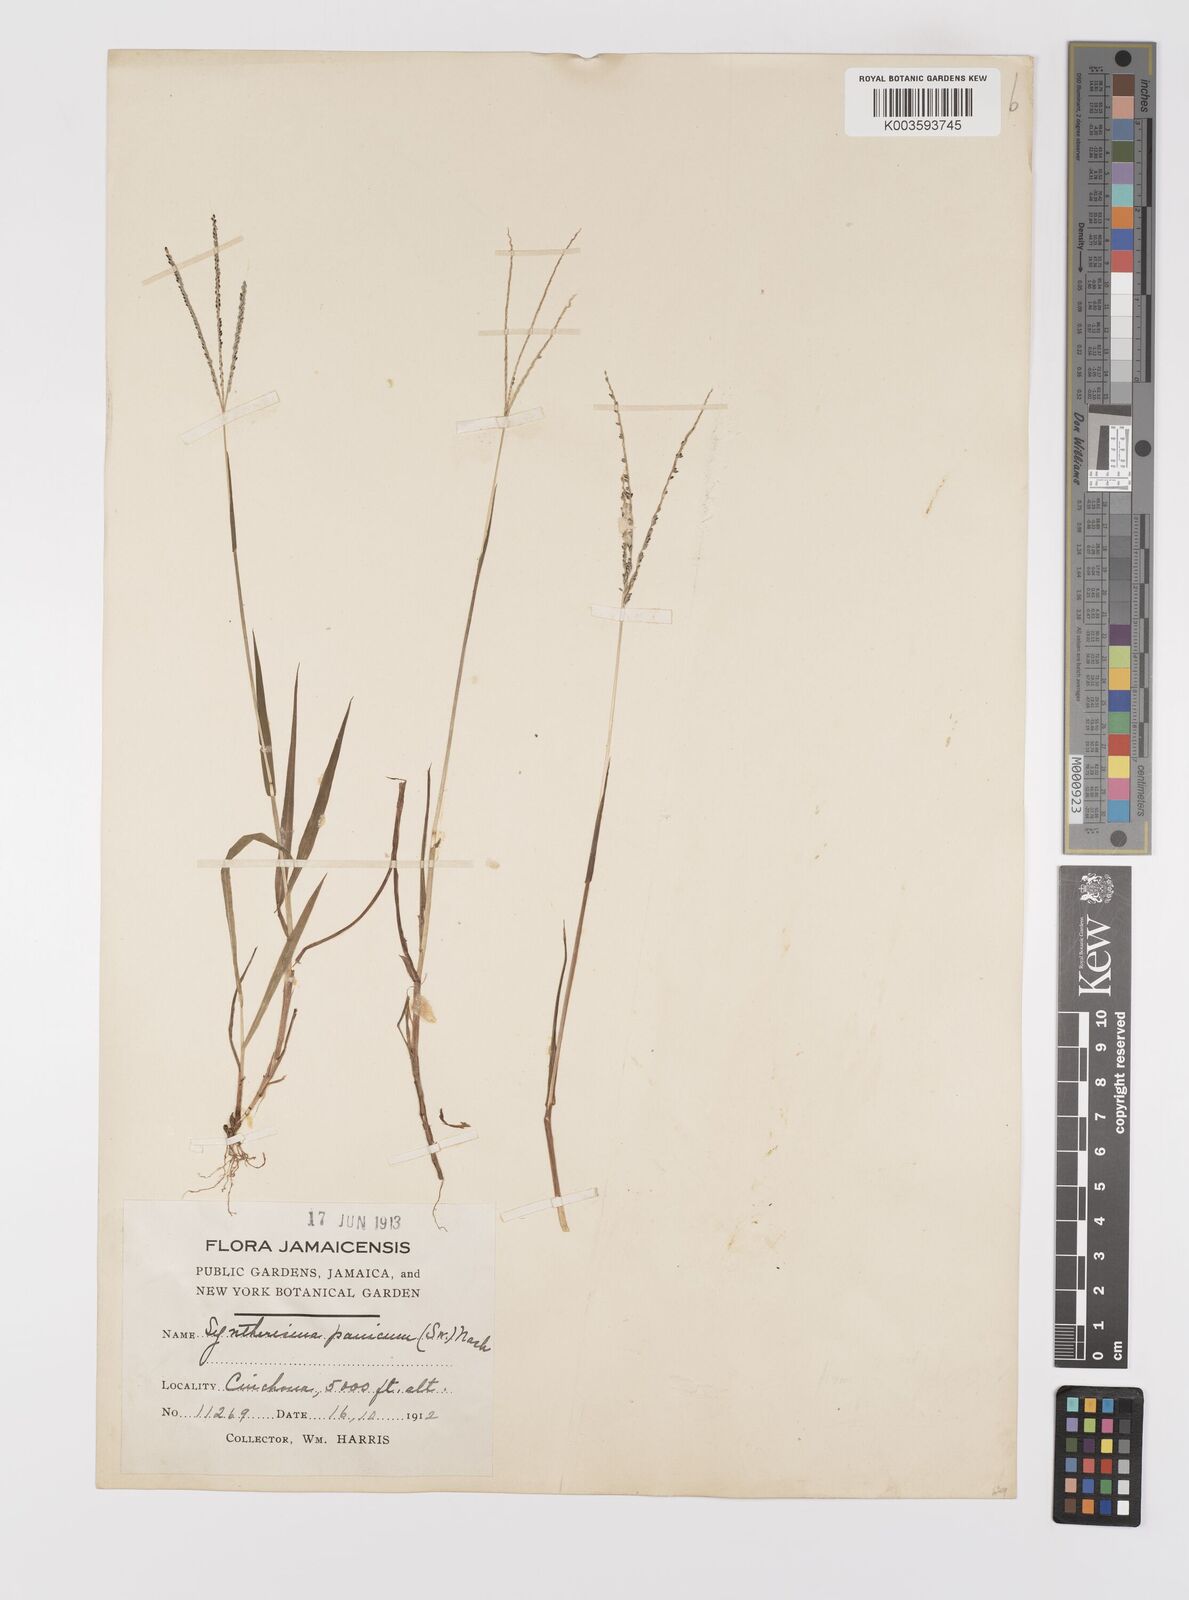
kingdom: Plantae
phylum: Tracheophyta
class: Liliopsida
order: Poales
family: Poaceae
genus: Digitaria
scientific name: Digitaria violascens
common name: Violet crabgrass
